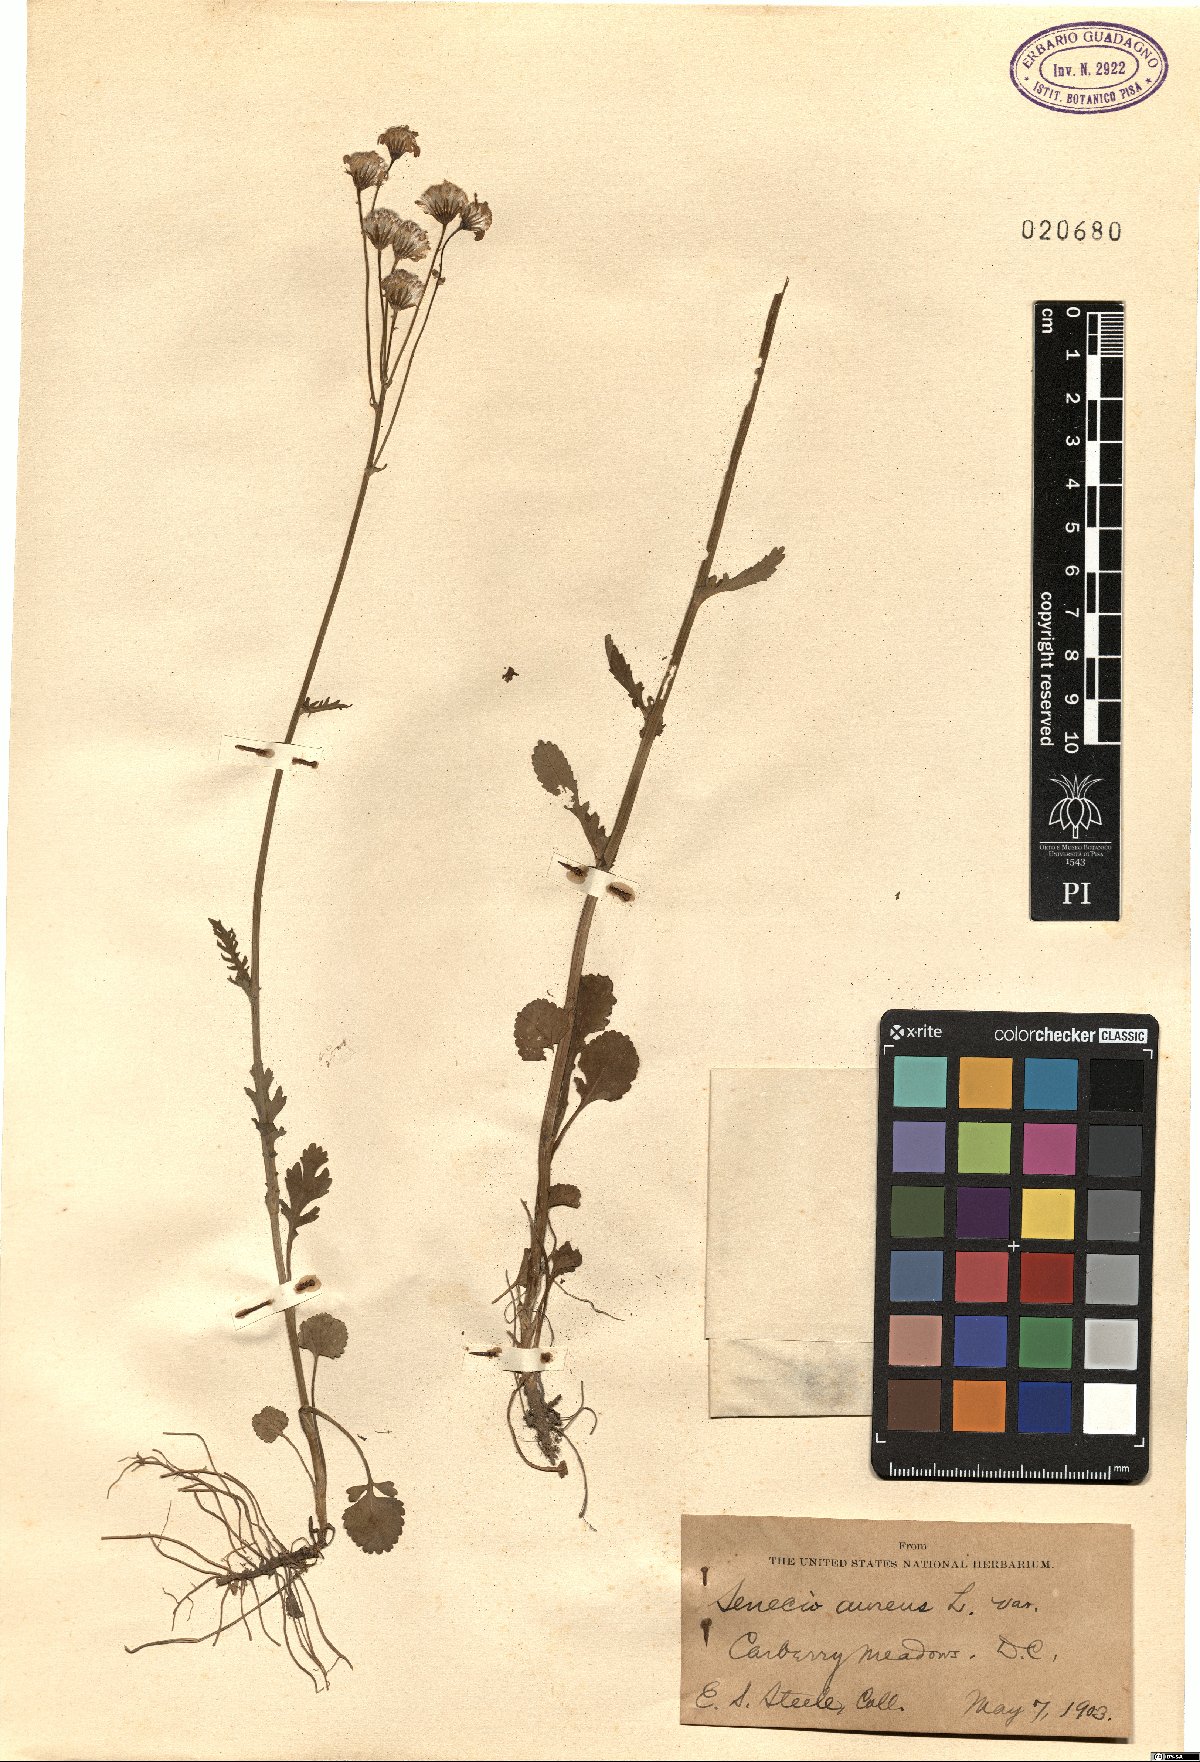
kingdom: Plantae
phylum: Tracheophyta
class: Magnoliopsida
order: Asterales
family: Asteraceae
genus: Packera
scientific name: Packera aurea
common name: Golden groundsel
